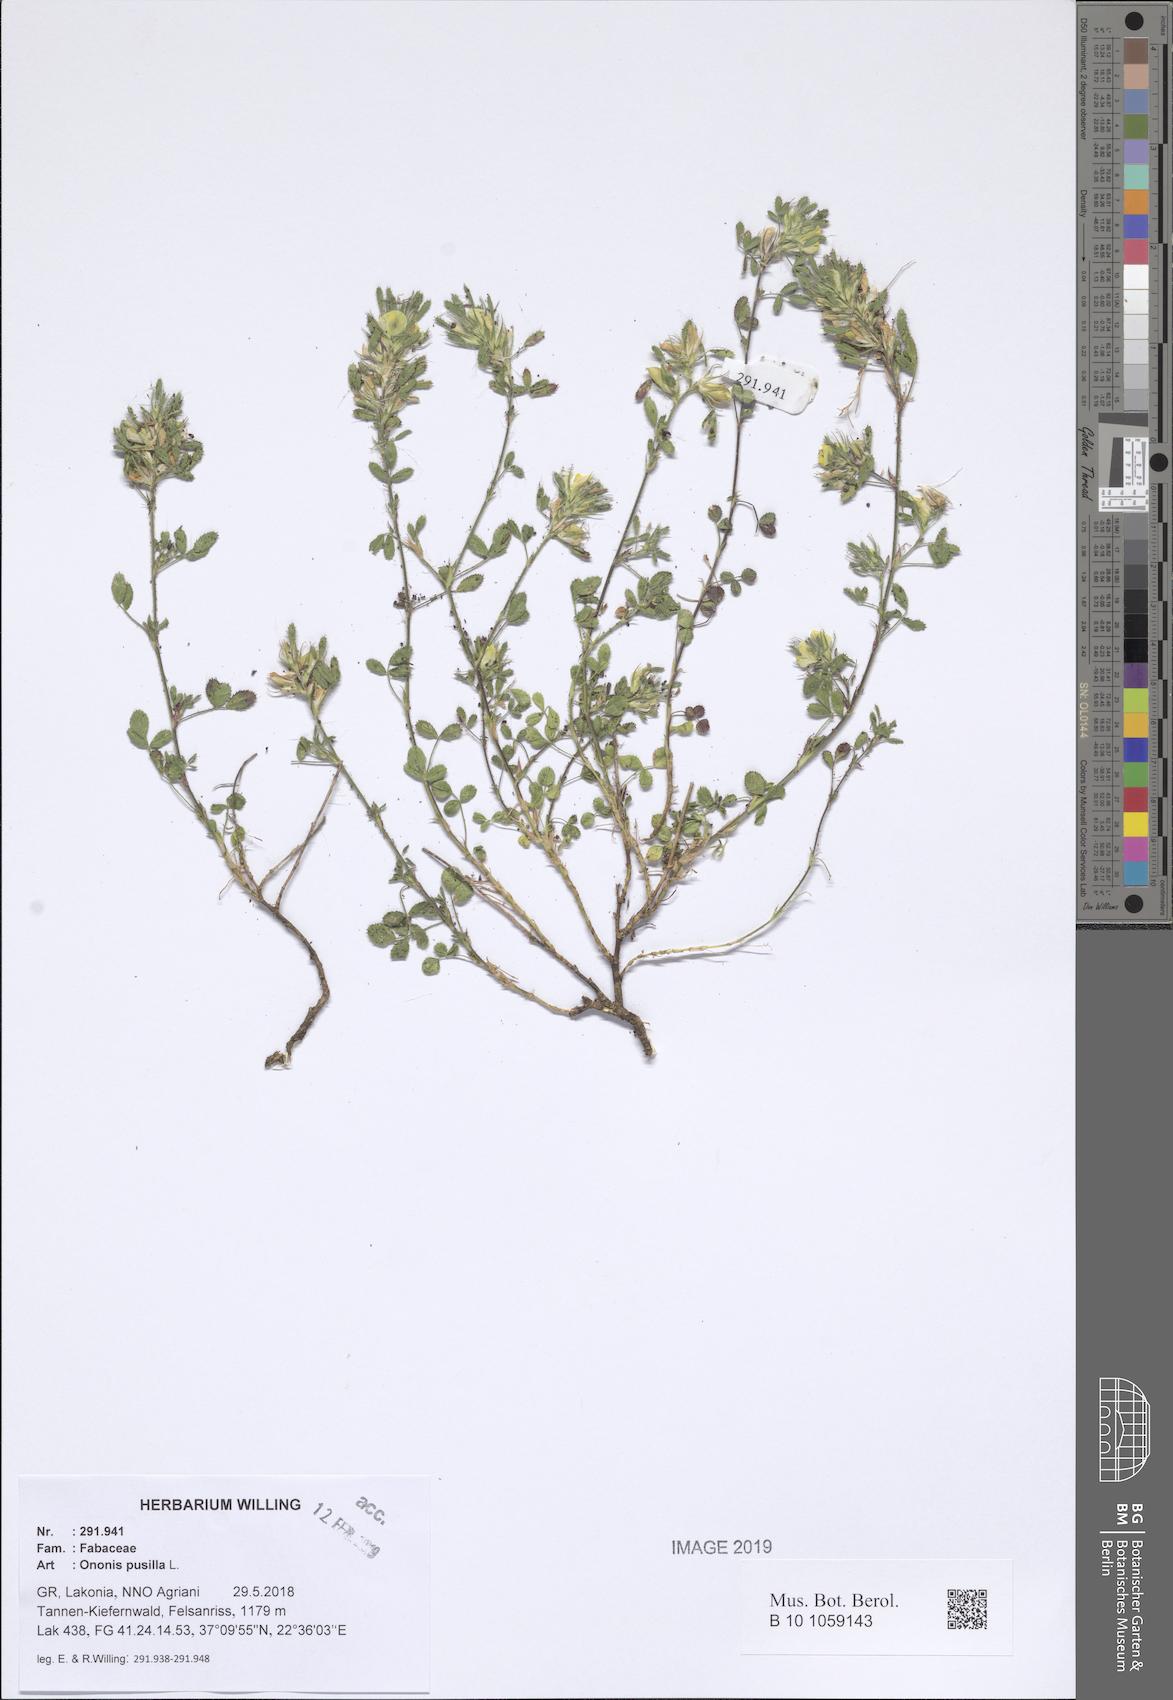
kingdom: Plantae
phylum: Tracheophyta
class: Magnoliopsida
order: Fabales
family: Fabaceae
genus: Ononis
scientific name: Ononis pusilla
